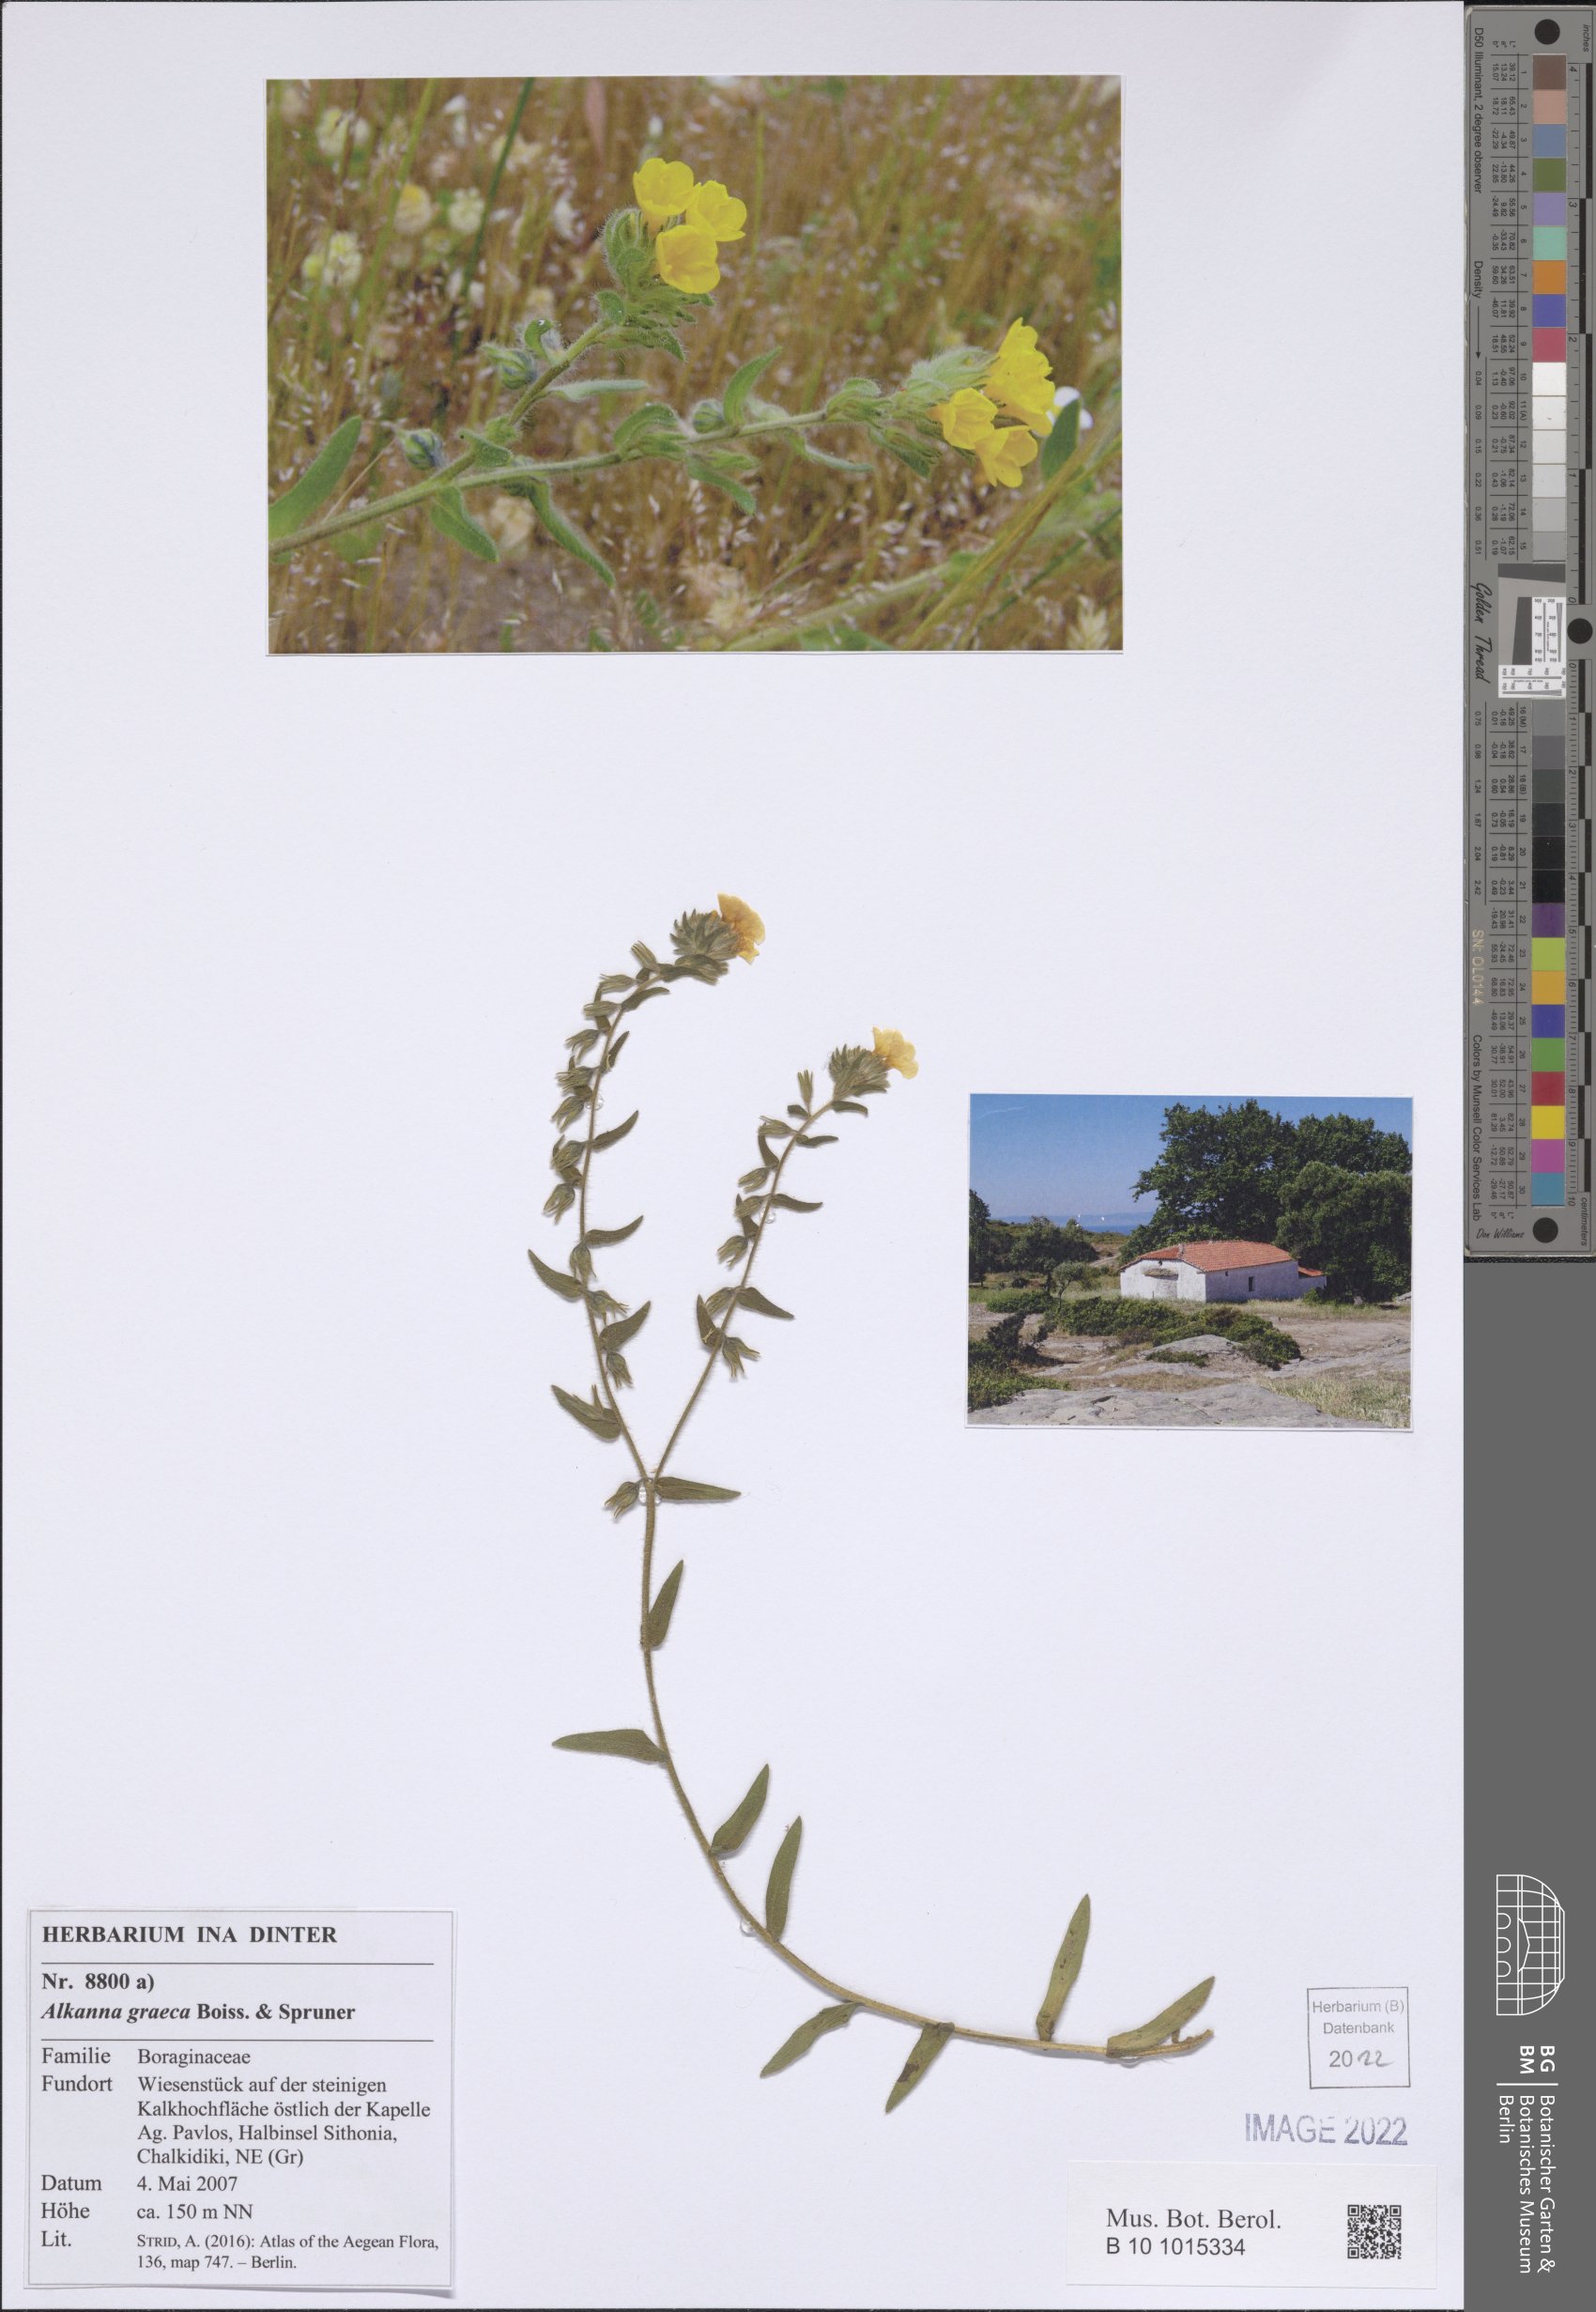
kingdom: Plantae
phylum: Tracheophyta
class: Magnoliopsida
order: Boraginales
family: Boraginaceae
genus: Alkanna
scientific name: Alkanna graeca
